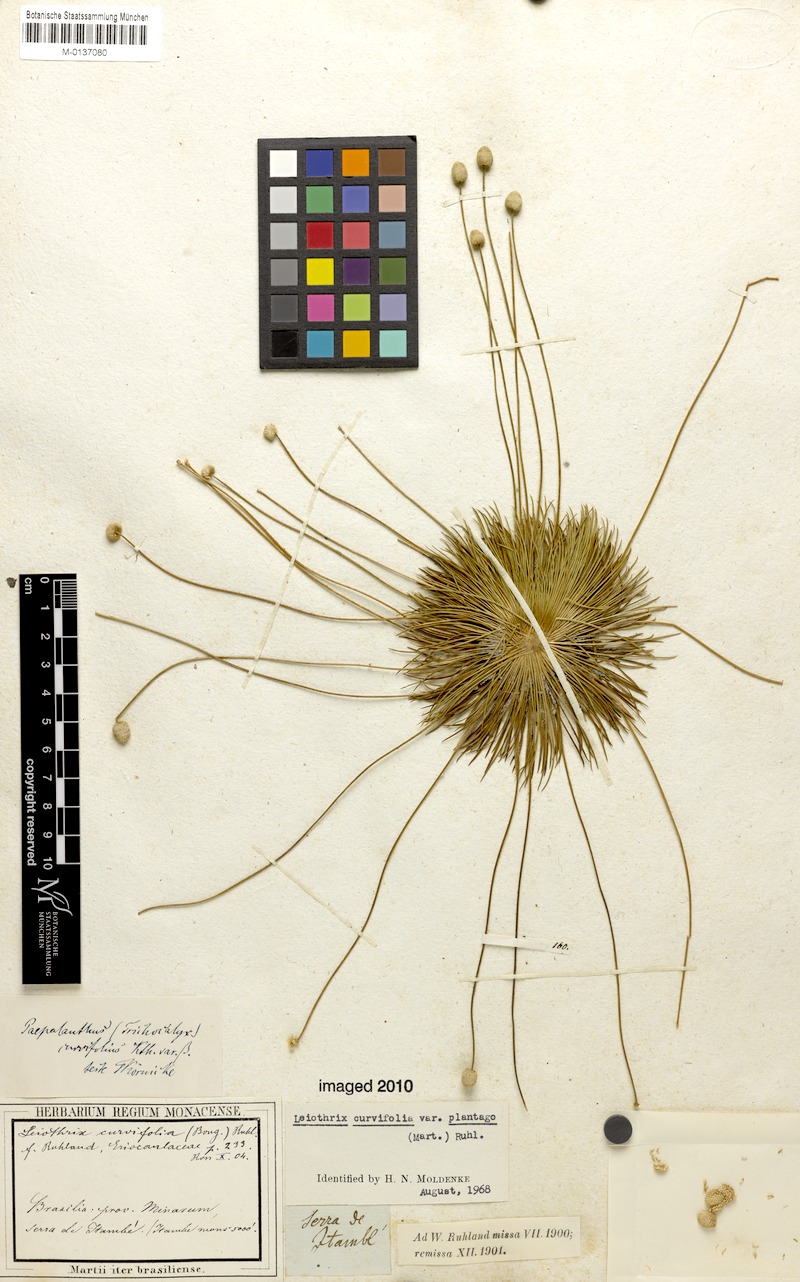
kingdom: Plantae
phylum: Tracheophyta
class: Liliopsida
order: Poales
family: Eriocaulaceae
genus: Leiothrix
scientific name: Leiothrix plantago
